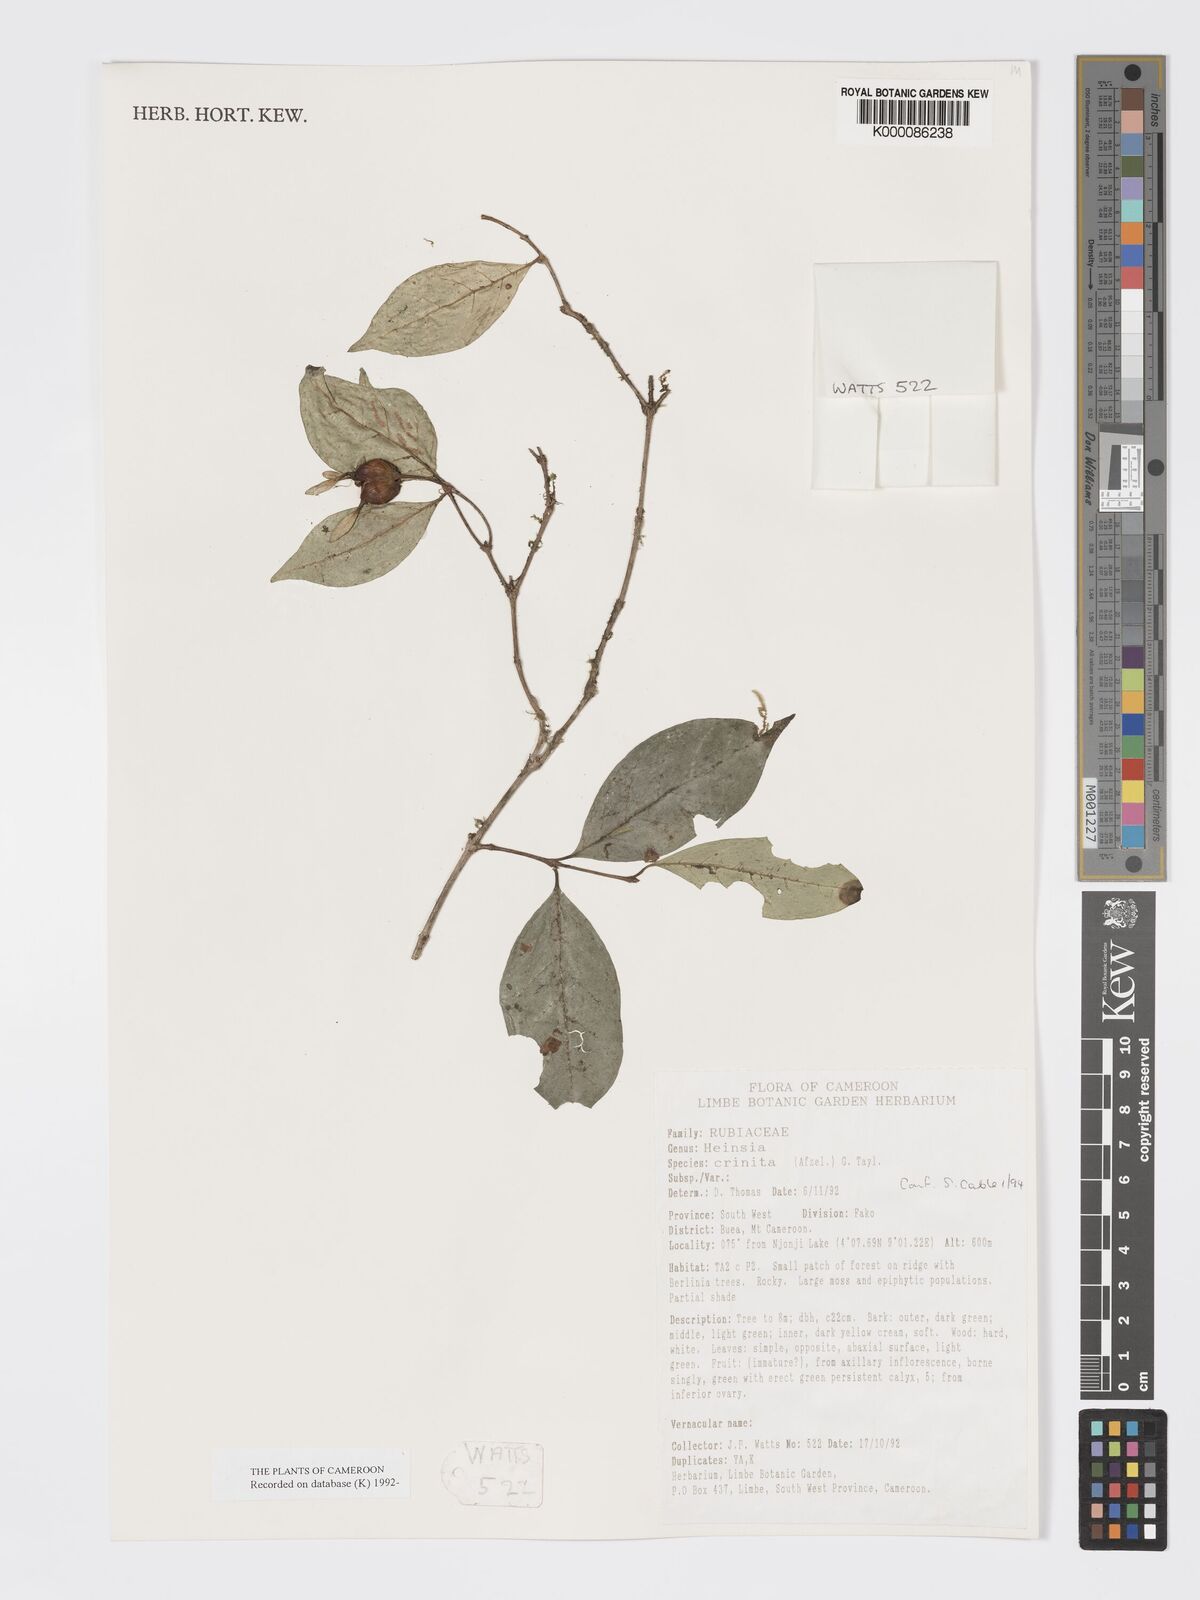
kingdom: Plantae
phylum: Tracheophyta
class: Magnoliopsida
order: Gentianales
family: Rubiaceae
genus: Heinsia
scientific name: Heinsia crinita
